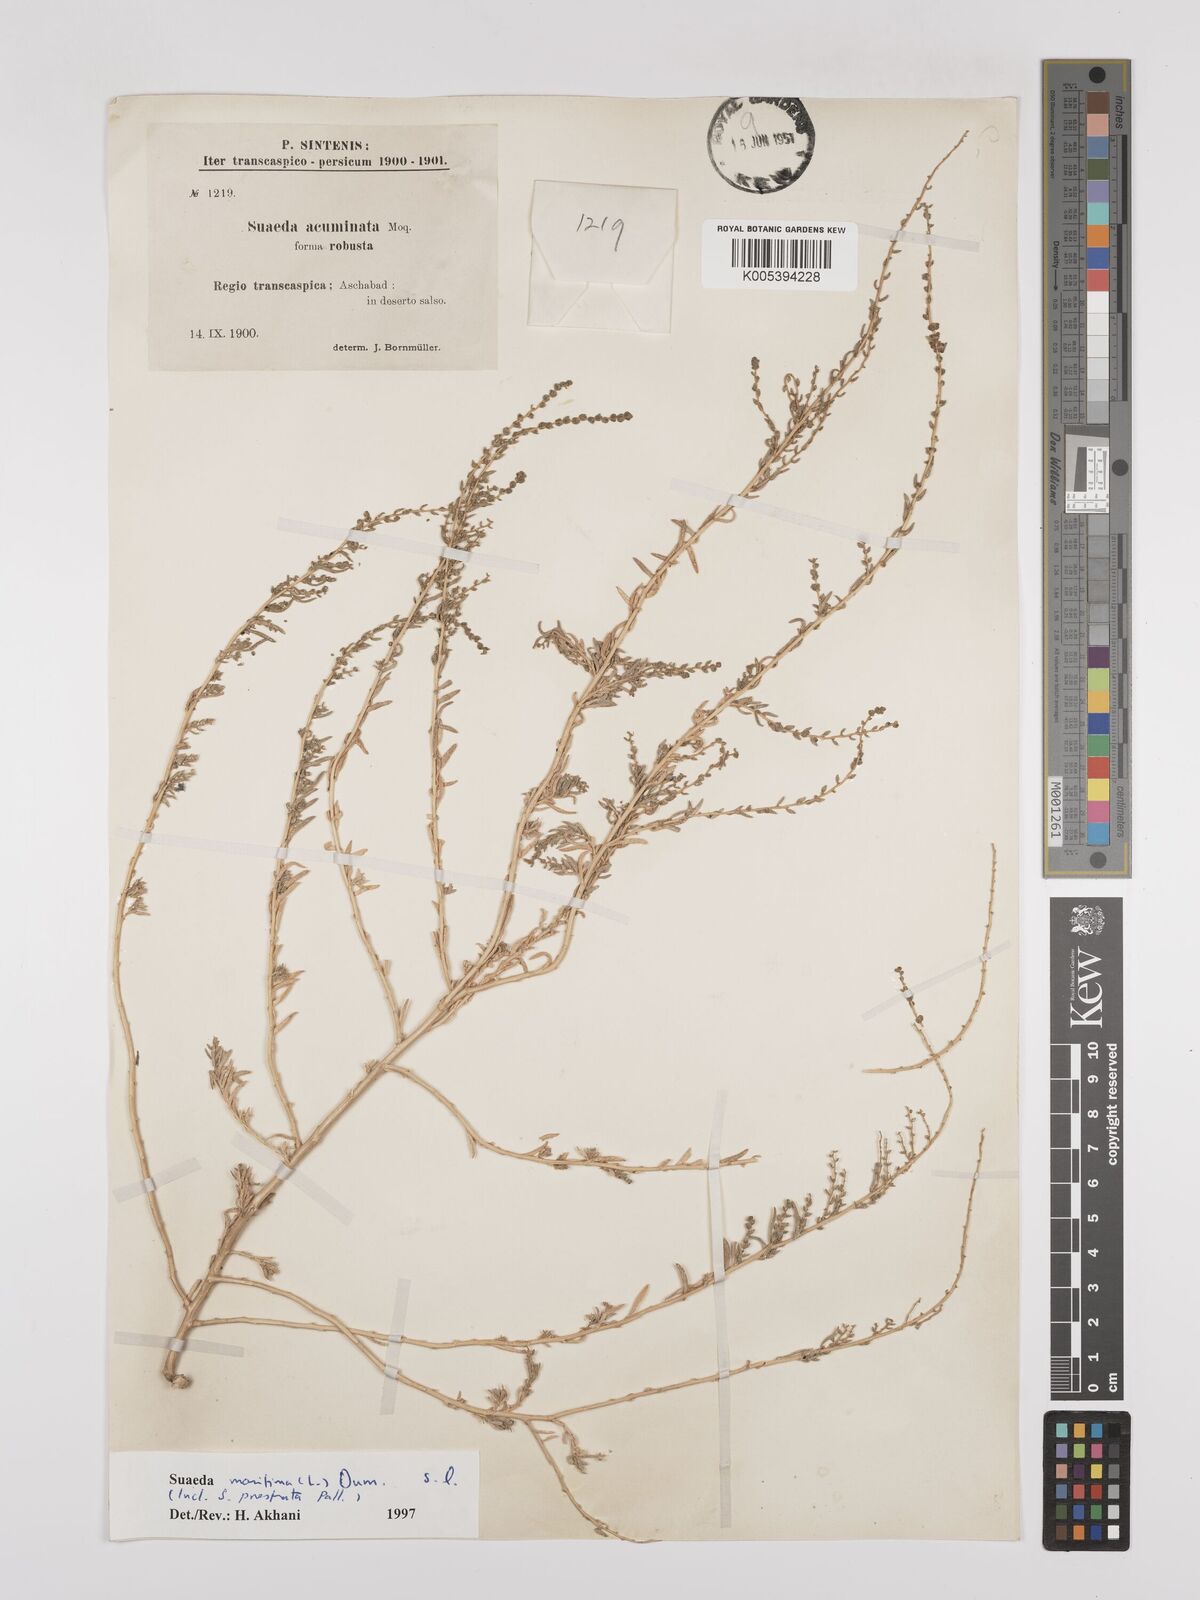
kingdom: Plantae
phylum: Tracheophyta
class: Magnoliopsida
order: Caryophyllales
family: Amaranthaceae
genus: Suaeda
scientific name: Suaeda
